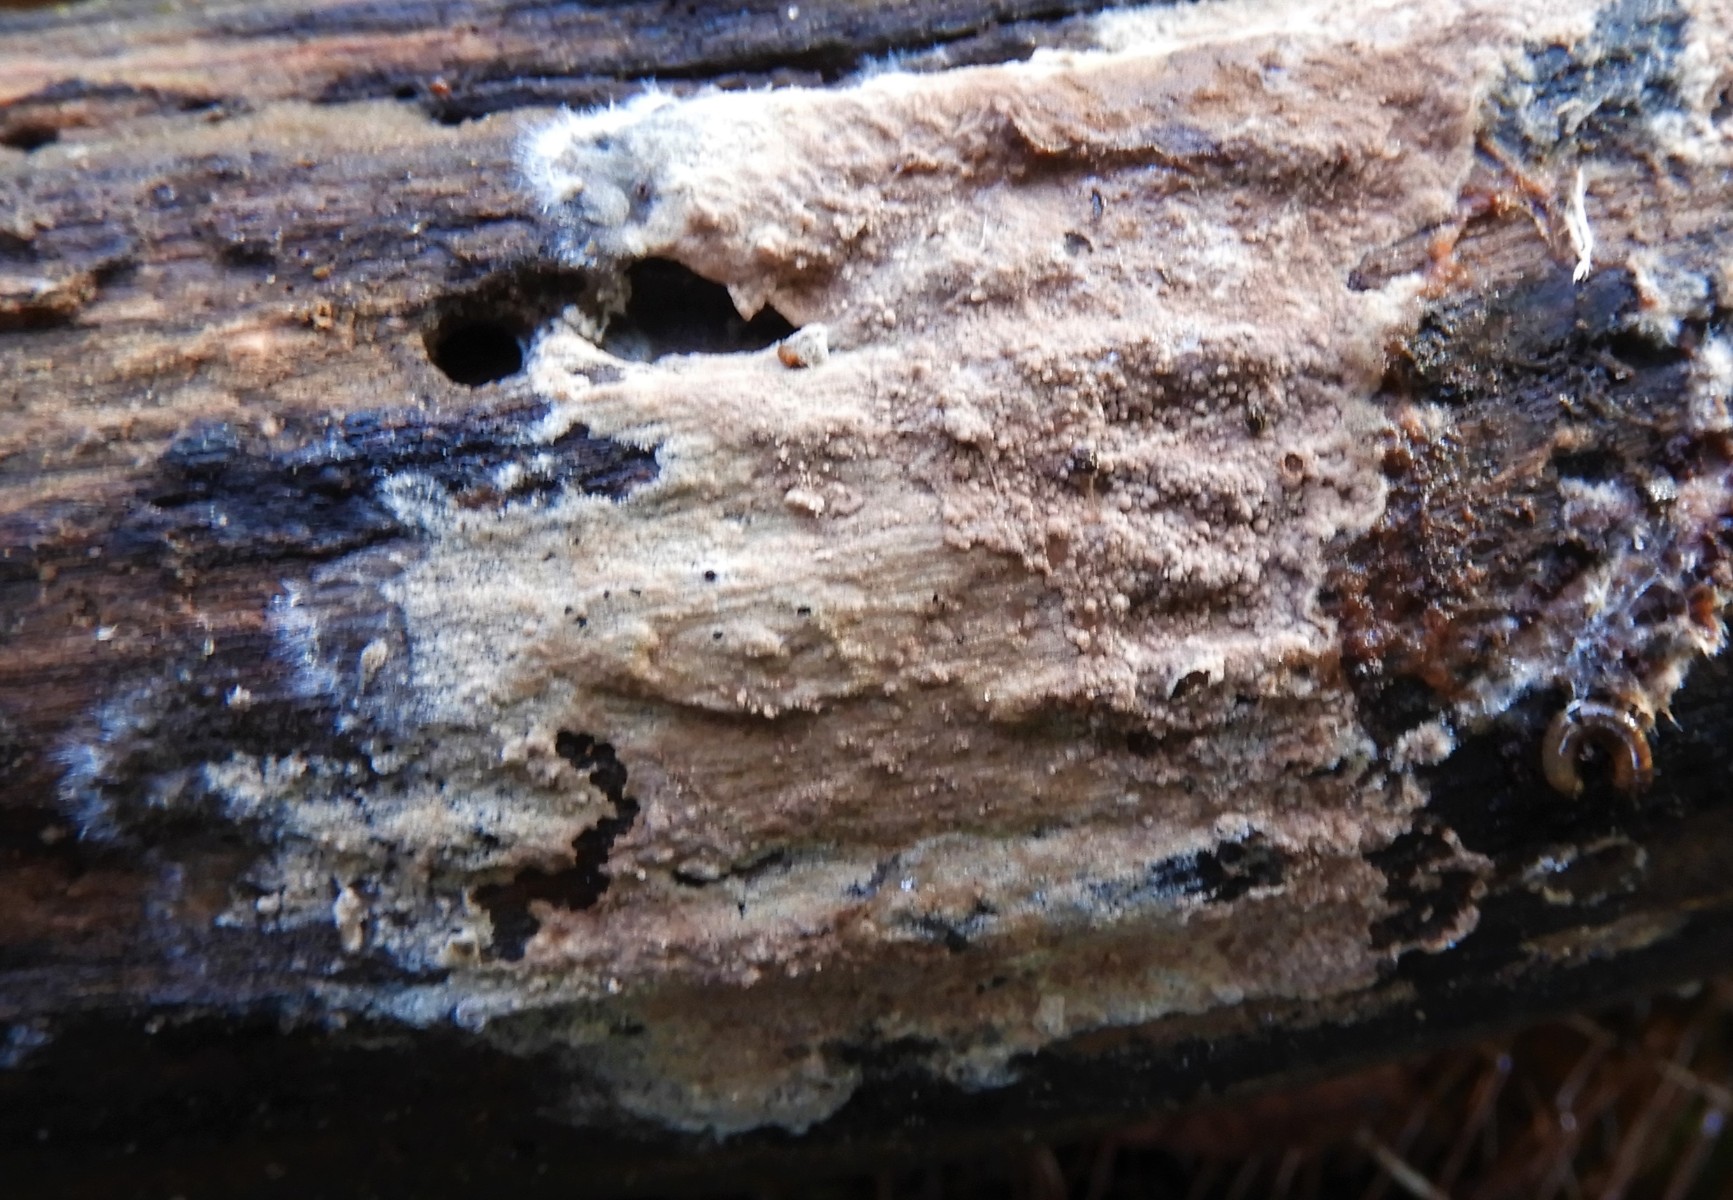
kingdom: Fungi
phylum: Basidiomycota
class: Agaricomycetes
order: Polyporales
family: Steccherinaceae
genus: Steccherinum
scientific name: Steccherinum fimbriatum
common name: trådet skønpig
